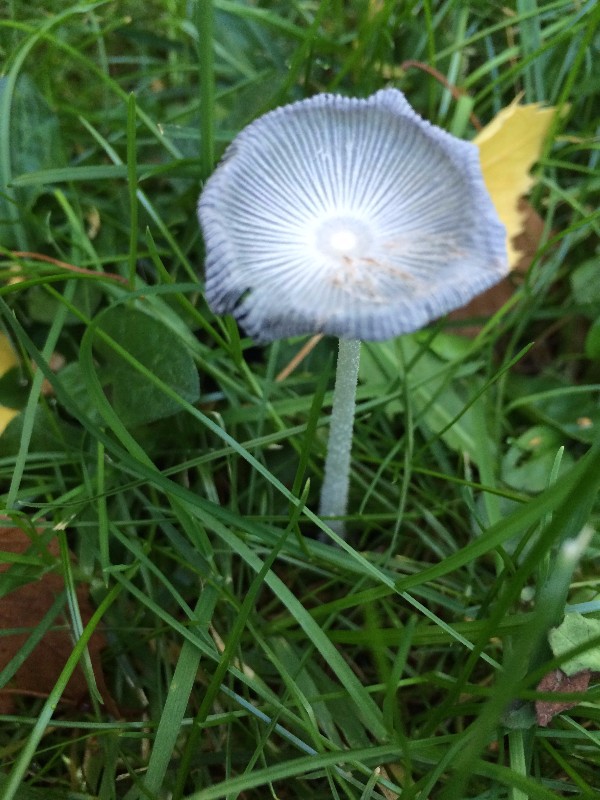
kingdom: Fungi
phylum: Basidiomycota
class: Agaricomycetes
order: Agaricales
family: Psathyrellaceae
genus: Coprinopsis
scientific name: Coprinopsis lagopus
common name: dunstokket blækhat
